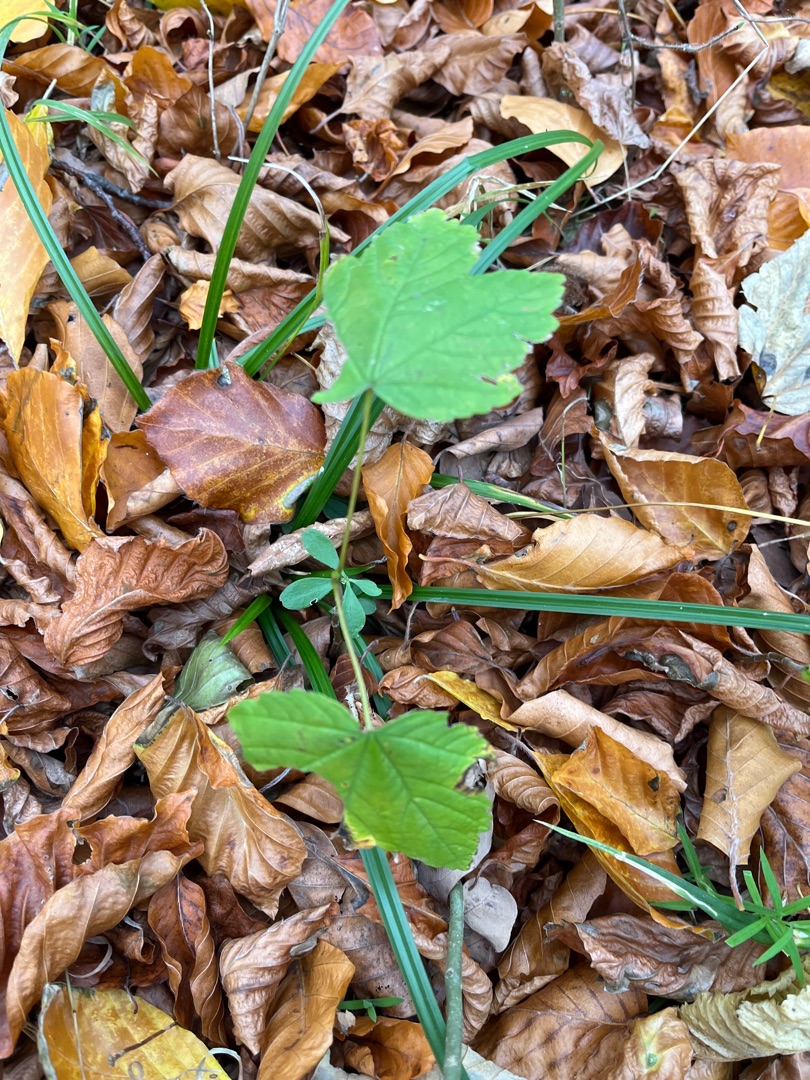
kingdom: Plantae
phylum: Tracheophyta
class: Magnoliopsida
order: Sapindales
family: Sapindaceae
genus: Acer
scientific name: Acer pseudoplatanus
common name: Ahorn
